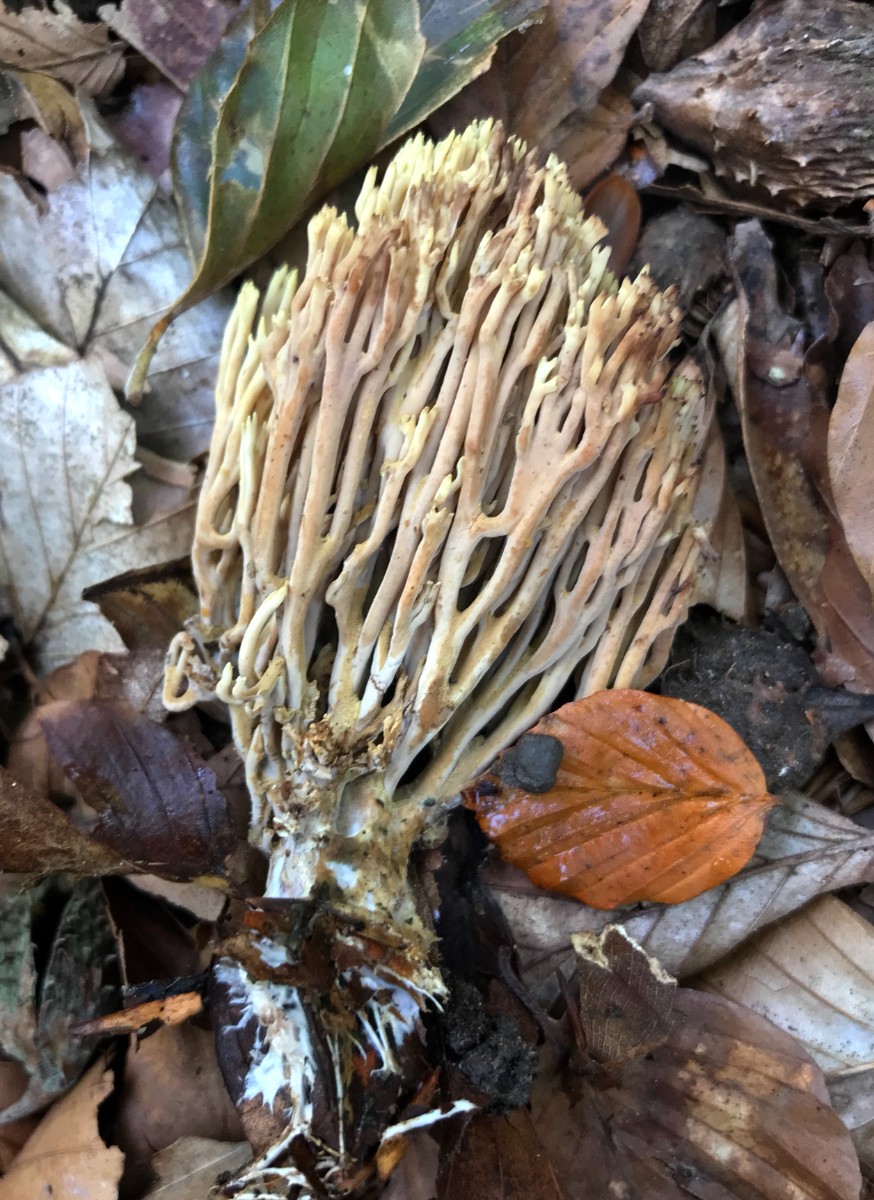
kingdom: Fungi
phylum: Basidiomycota
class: Agaricomycetes
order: Gomphales
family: Gomphaceae
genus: Ramaria
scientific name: Ramaria stricta
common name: rank koralsvamp
